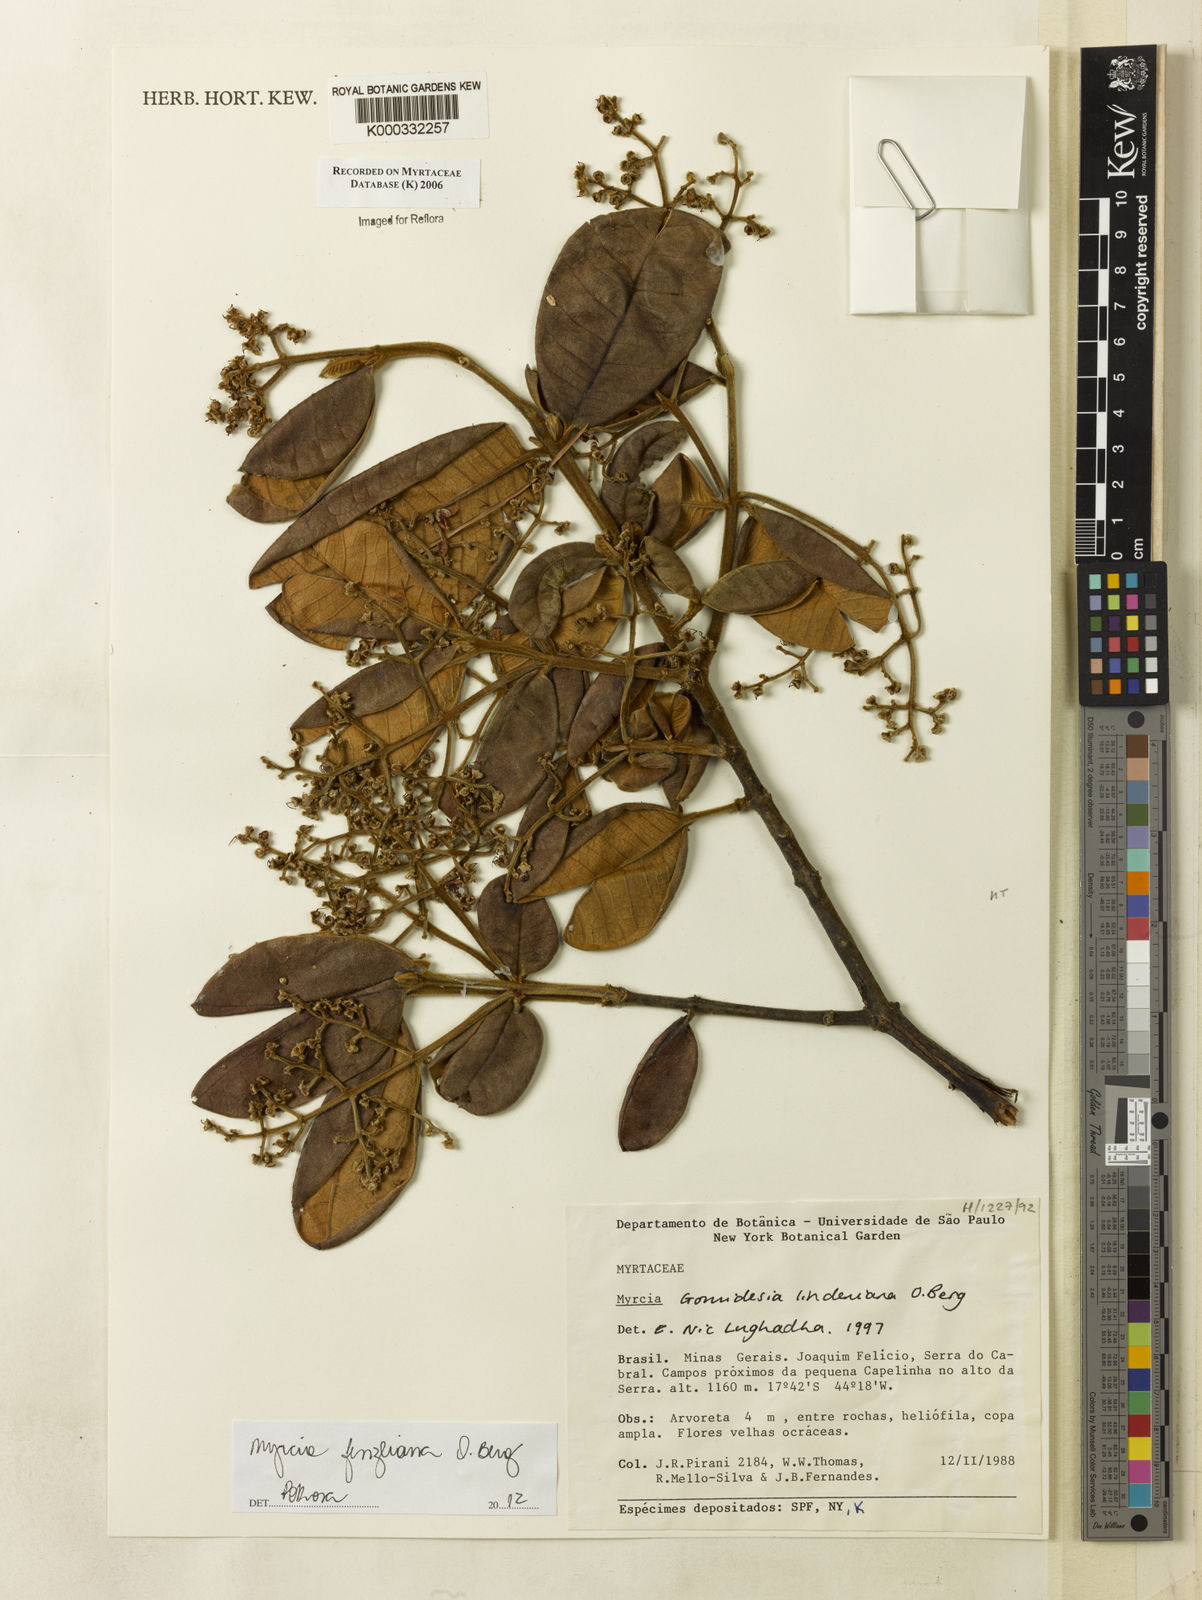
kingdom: Plantae
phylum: Tracheophyta
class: Magnoliopsida
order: Myrtales
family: Myrtaceae
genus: Myrcia
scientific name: Myrcia fenzliana
